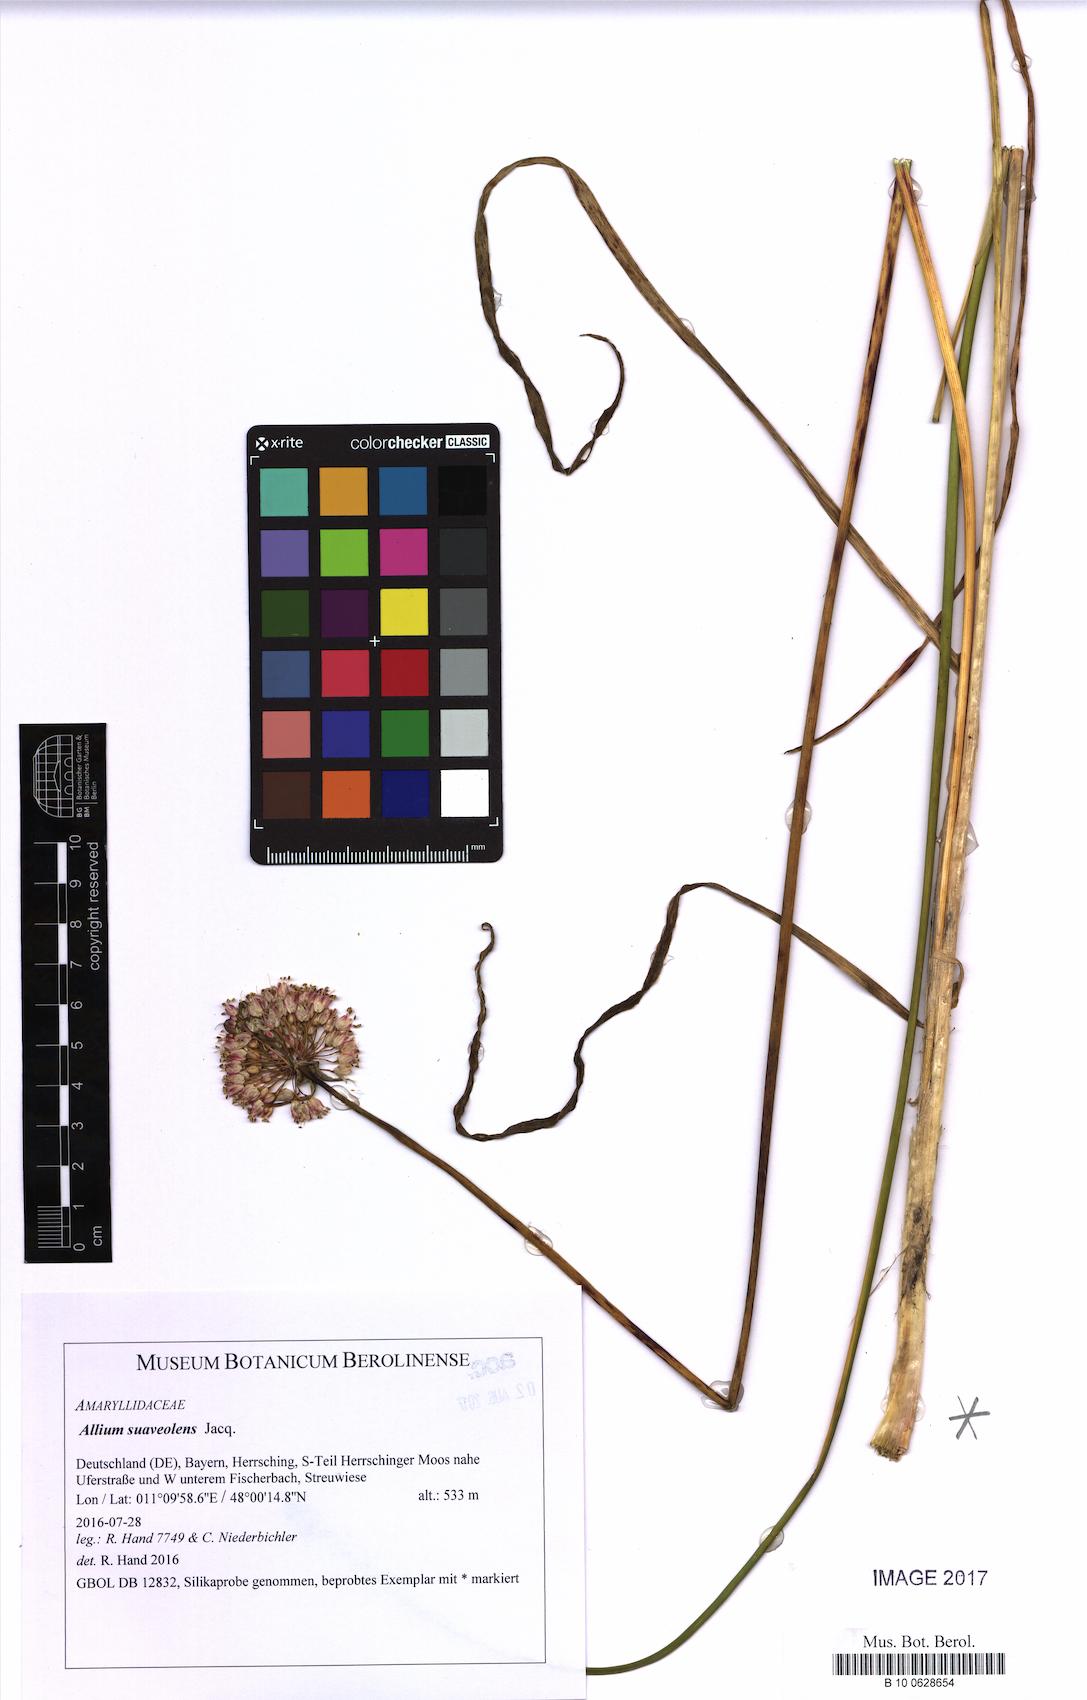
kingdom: Plantae
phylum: Tracheophyta
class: Liliopsida
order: Asparagales
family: Amaryllidaceae
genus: Allium
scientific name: Allium suaveolens
